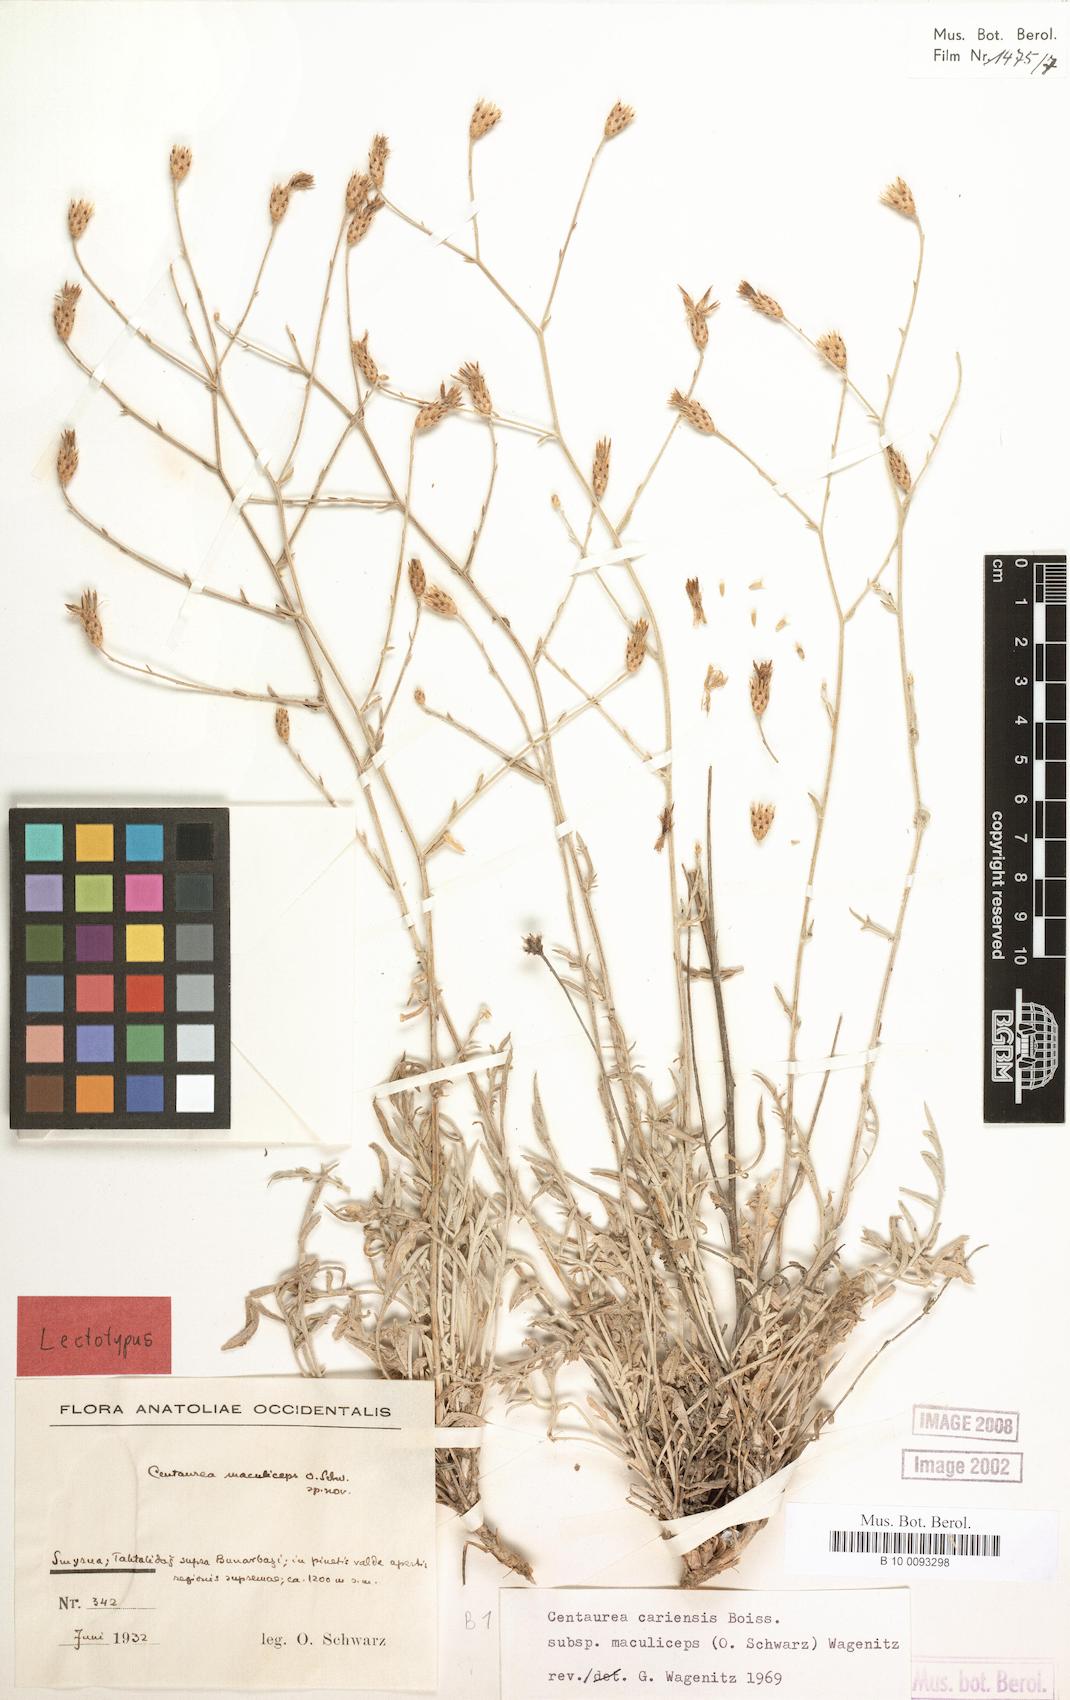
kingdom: Plantae
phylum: Tracheophyta
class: Magnoliopsida
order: Asterales
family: Asteraceae
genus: Centaurea
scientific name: Centaurea cariensis
